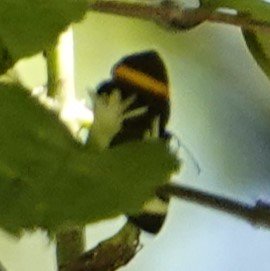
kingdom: Animalia
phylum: Arthropoda
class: Insecta
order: Lepidoptera
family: Lycaenidae
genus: Emesis
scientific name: Emesis cypria
